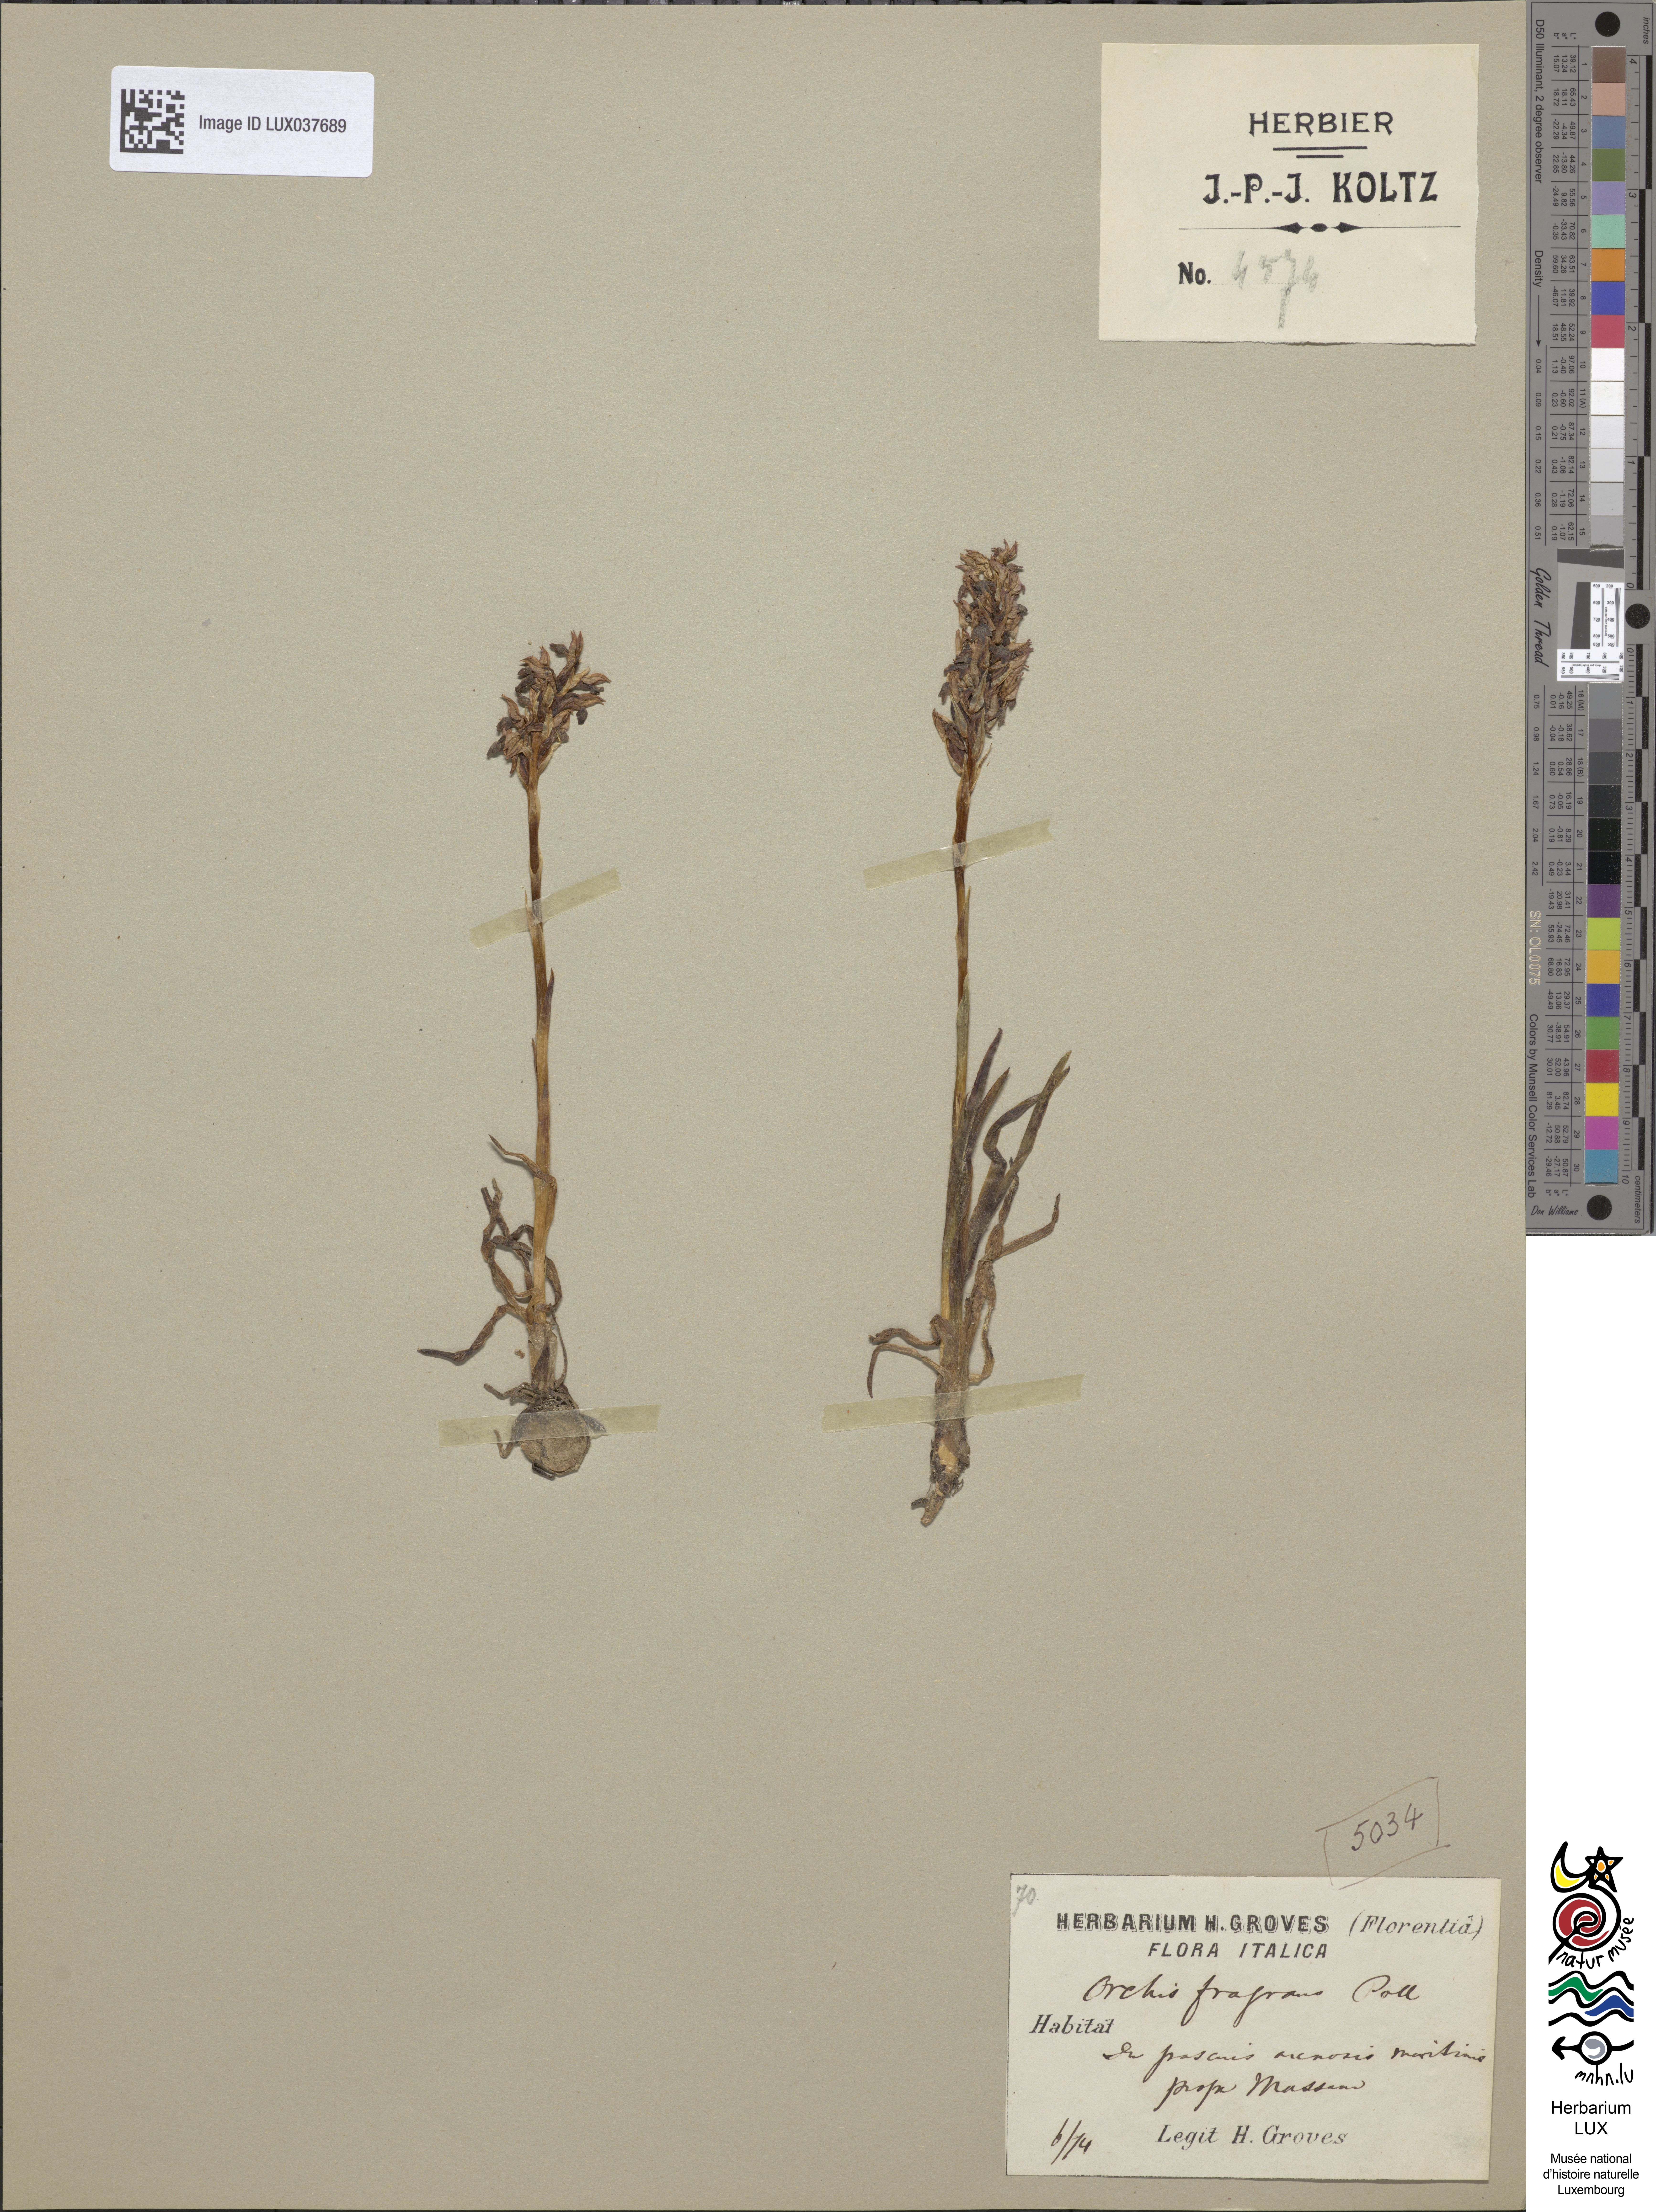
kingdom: Plantae
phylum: Tracheophyta
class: Liliopsida
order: Asparagales
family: Orchidaceae
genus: Anacamptis
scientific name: Anacamptis coriophora
